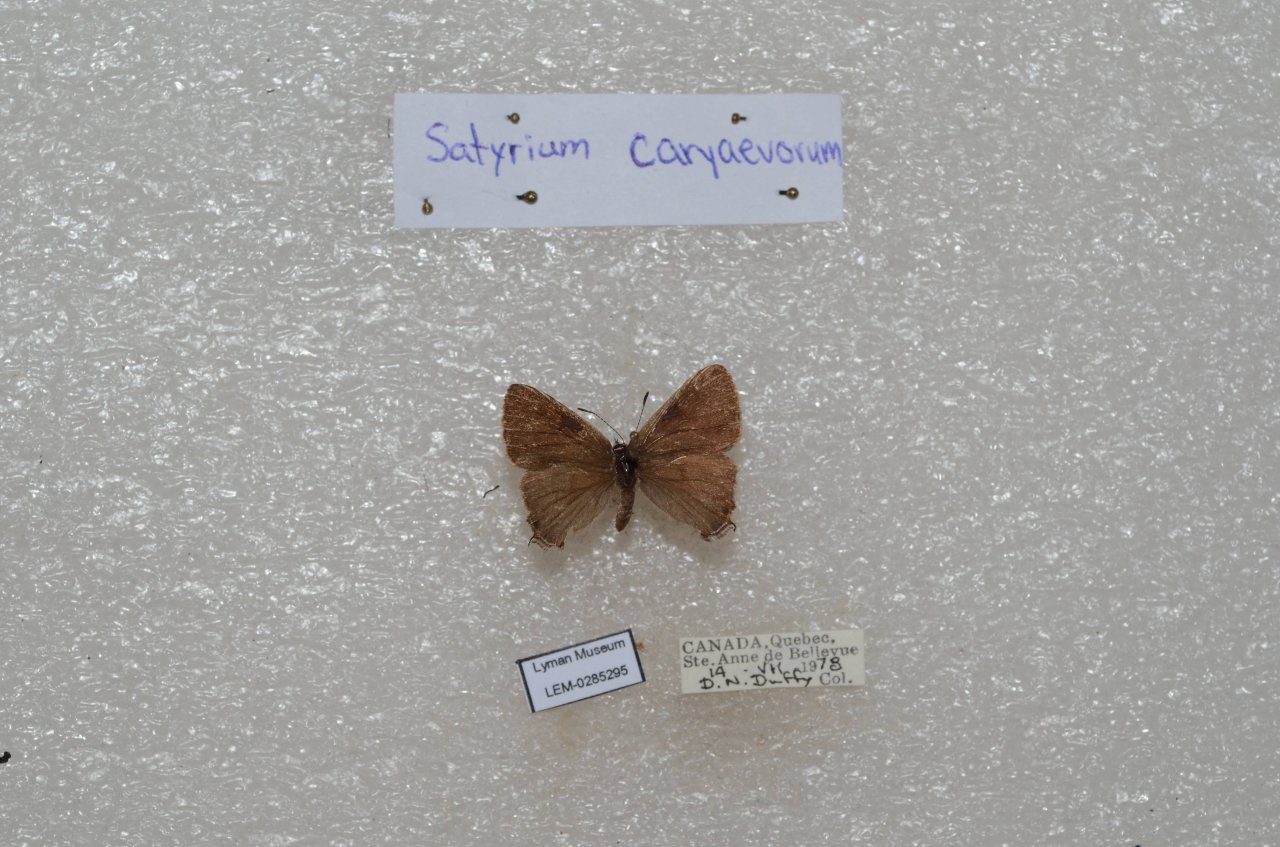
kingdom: Animalia
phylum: Arthropoda
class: Insecta
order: Lepidoptera
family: Lycaenidae
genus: Strymon
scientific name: Strymon caryaevorus
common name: Hickory Hairstreak
